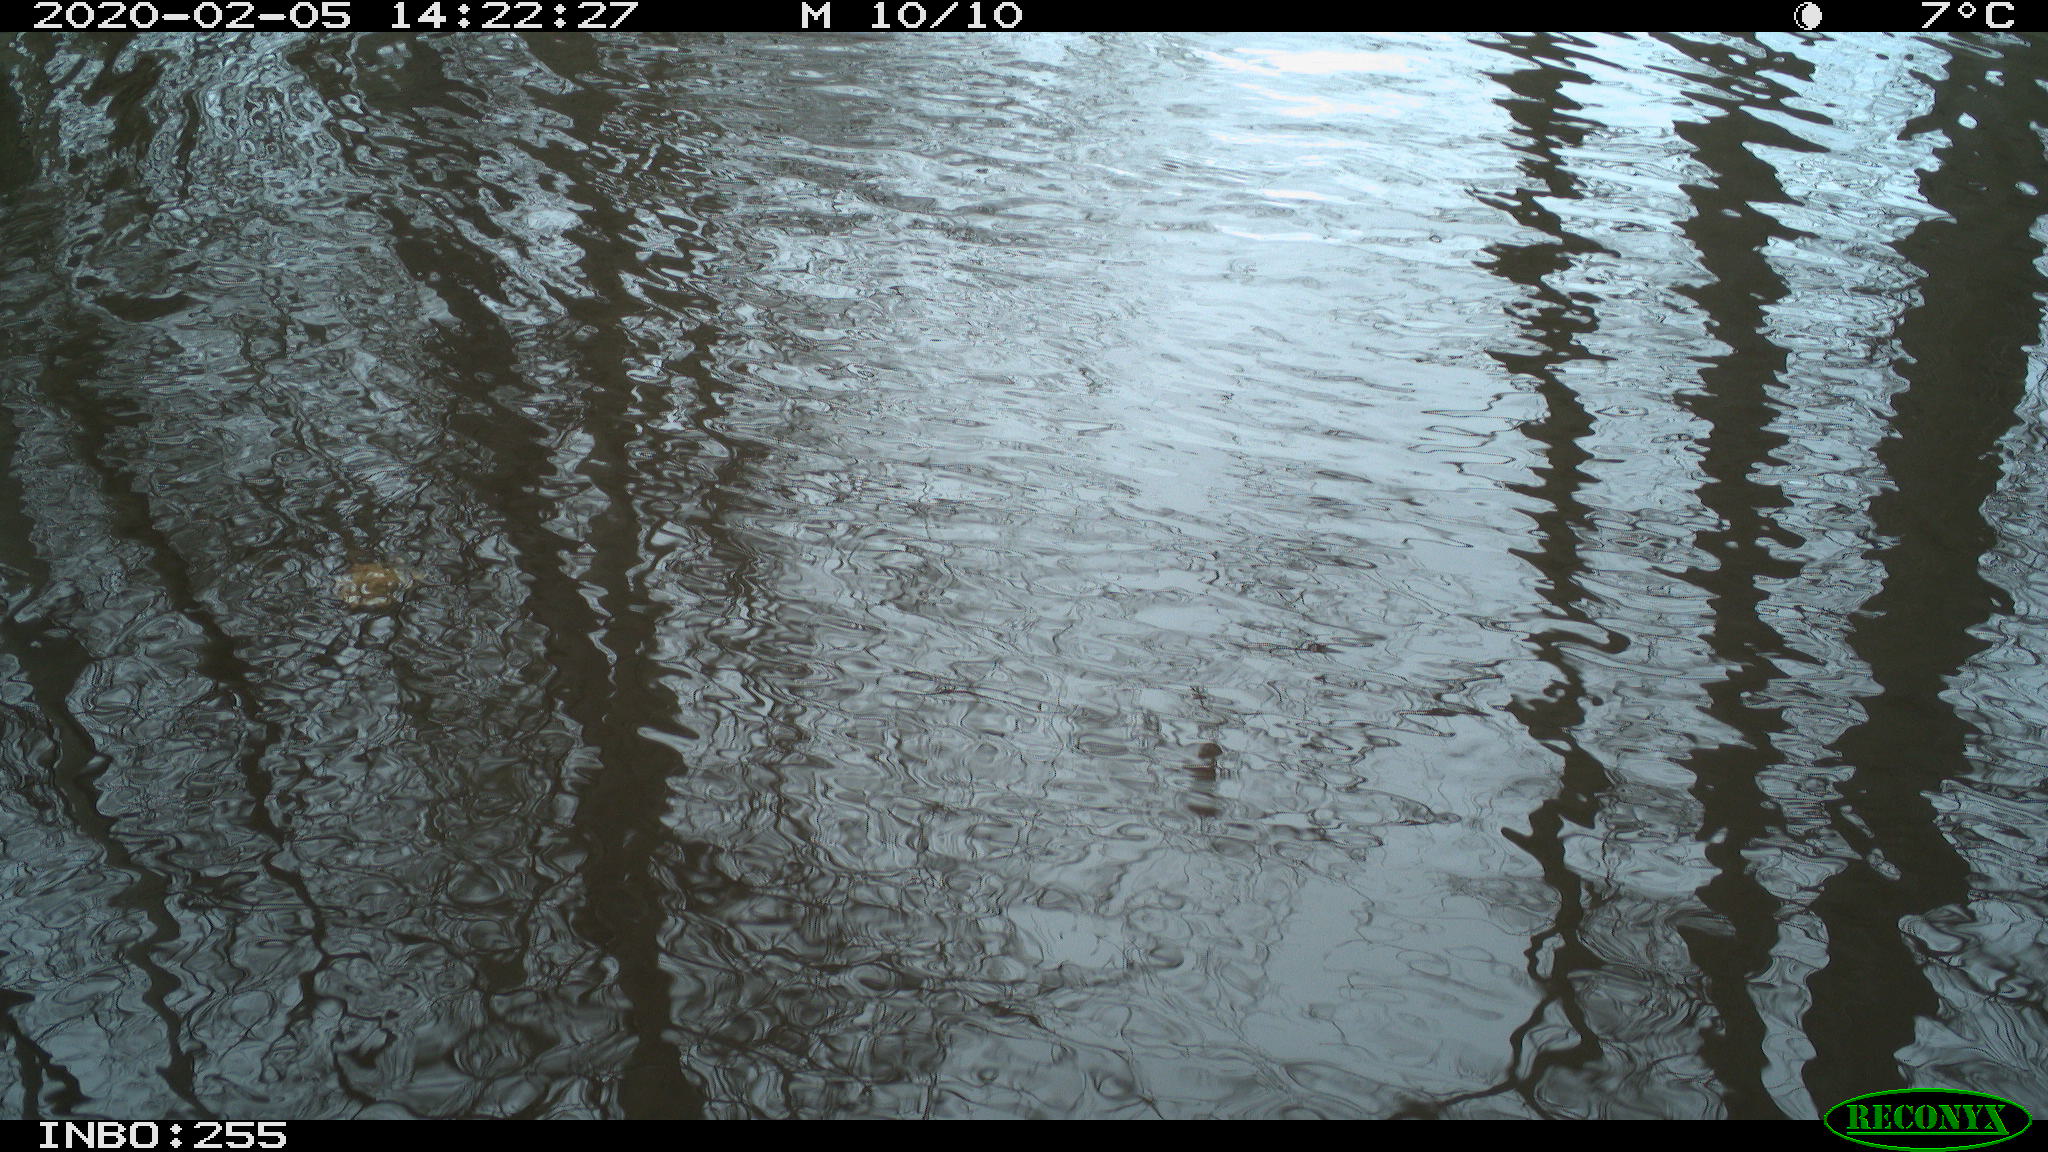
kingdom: Animalia
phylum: Chordata
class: Aves
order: Gruiformes
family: Rallidae
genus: Fulica
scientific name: Fulica atra
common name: Eurasian coot
